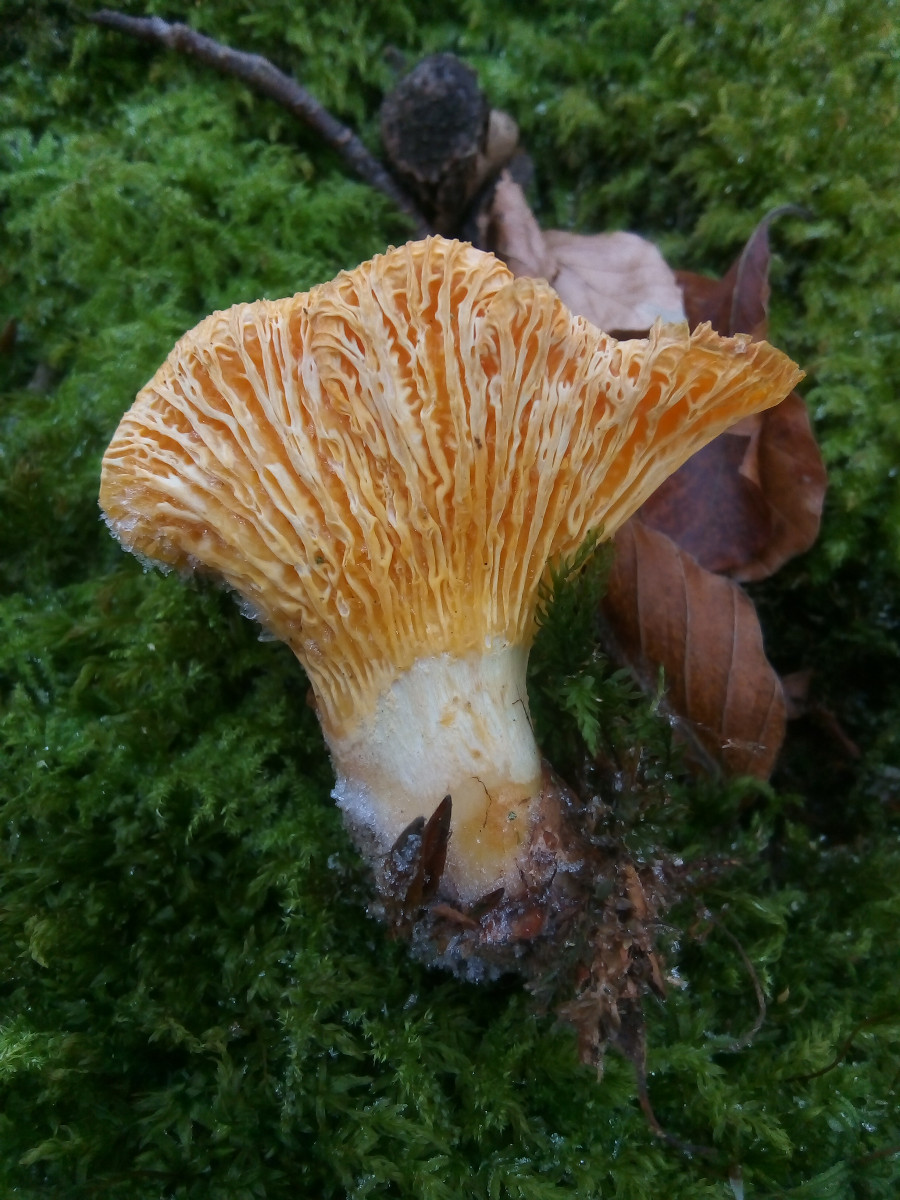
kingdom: Fungi
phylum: Basidiomycota
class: Agaricomycetes
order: Cantharellales
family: Hydnaceae
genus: Cantharellus
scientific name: Cantharellus pallens
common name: bleg kantarel
